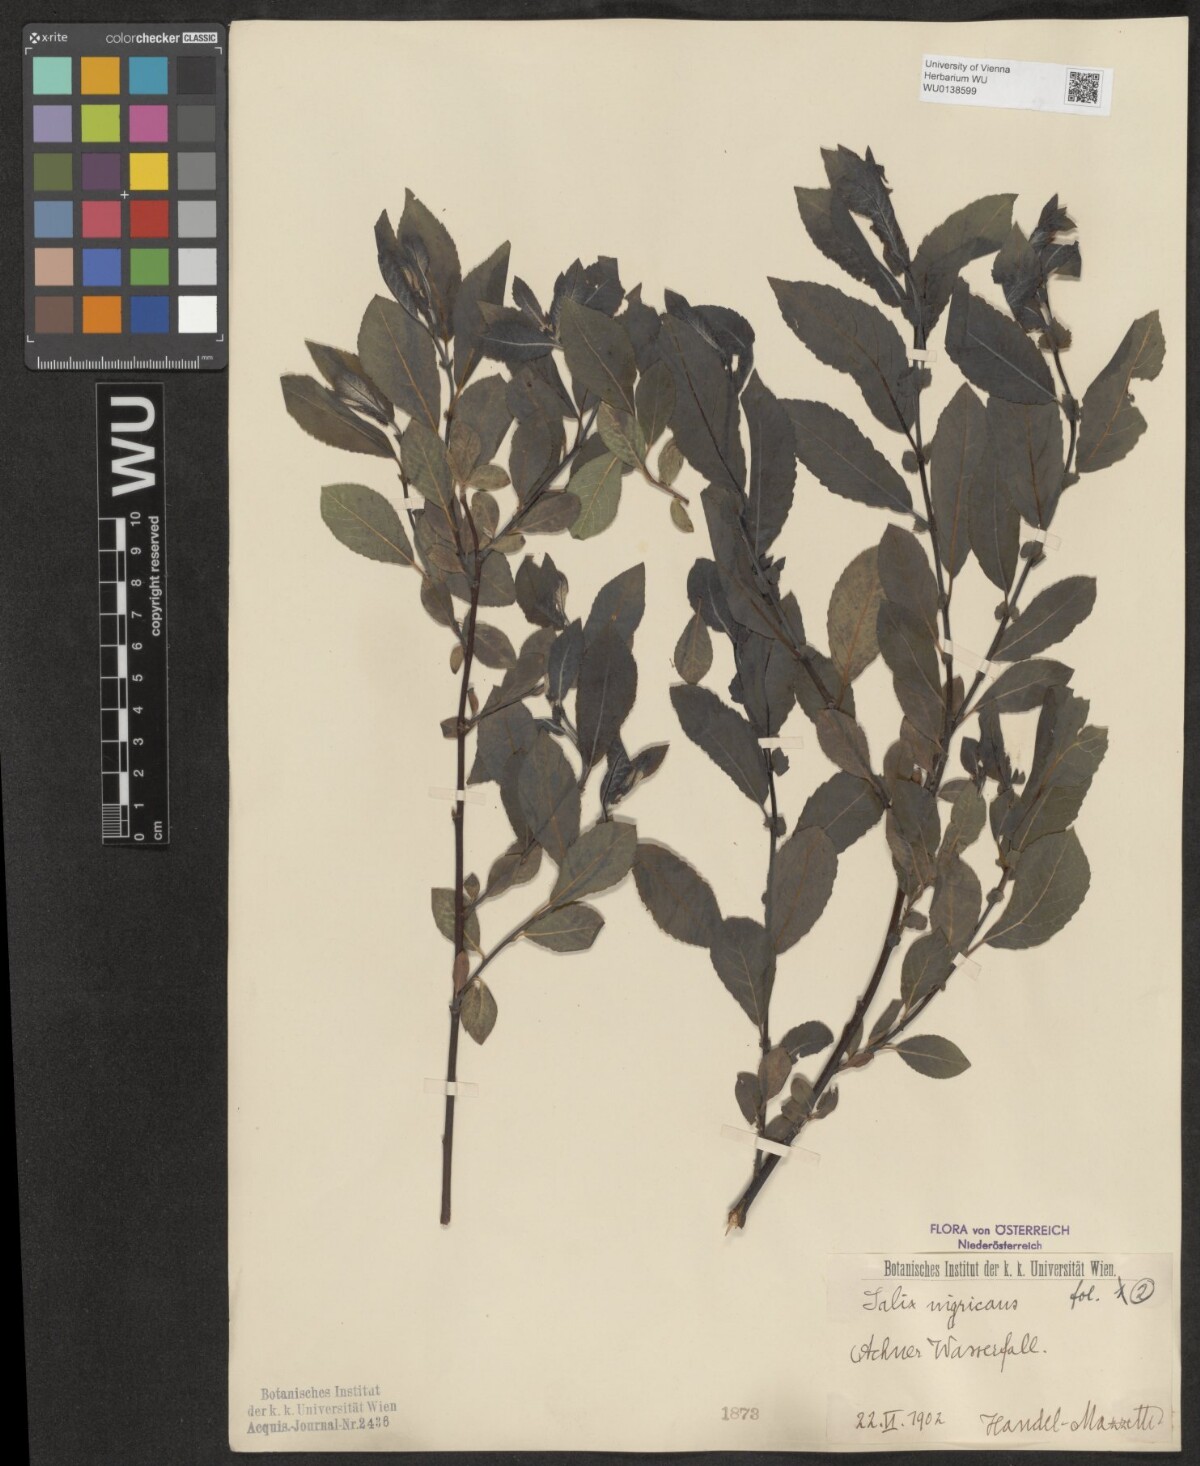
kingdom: Plantae
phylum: Tracheophyta
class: Magnoliopsida
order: Malpighiales
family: Salicaceae
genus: Salix
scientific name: Salix myrsinifolia
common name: Dark-leaved willow
